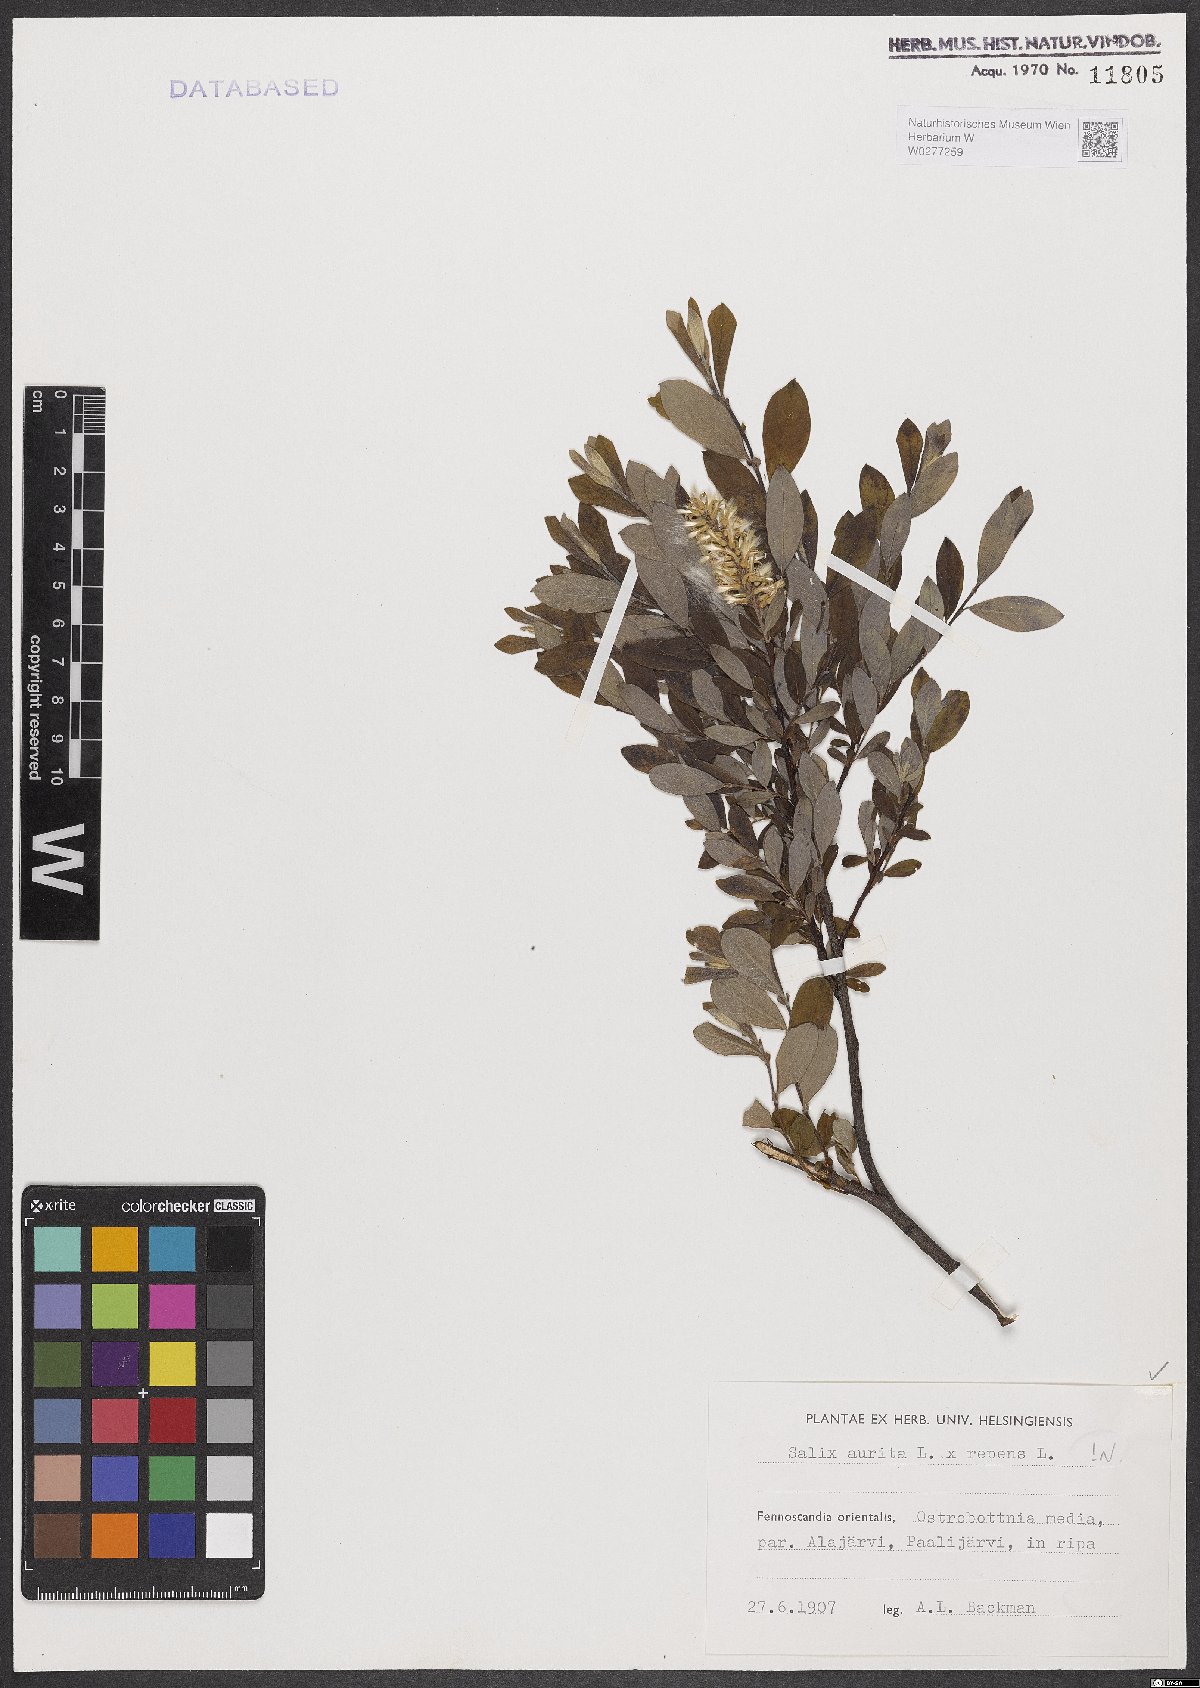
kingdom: Plantae
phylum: Tracheophyta
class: Magnoliopsida
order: Malpighiales
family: Salicaceae
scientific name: Salicaceae
